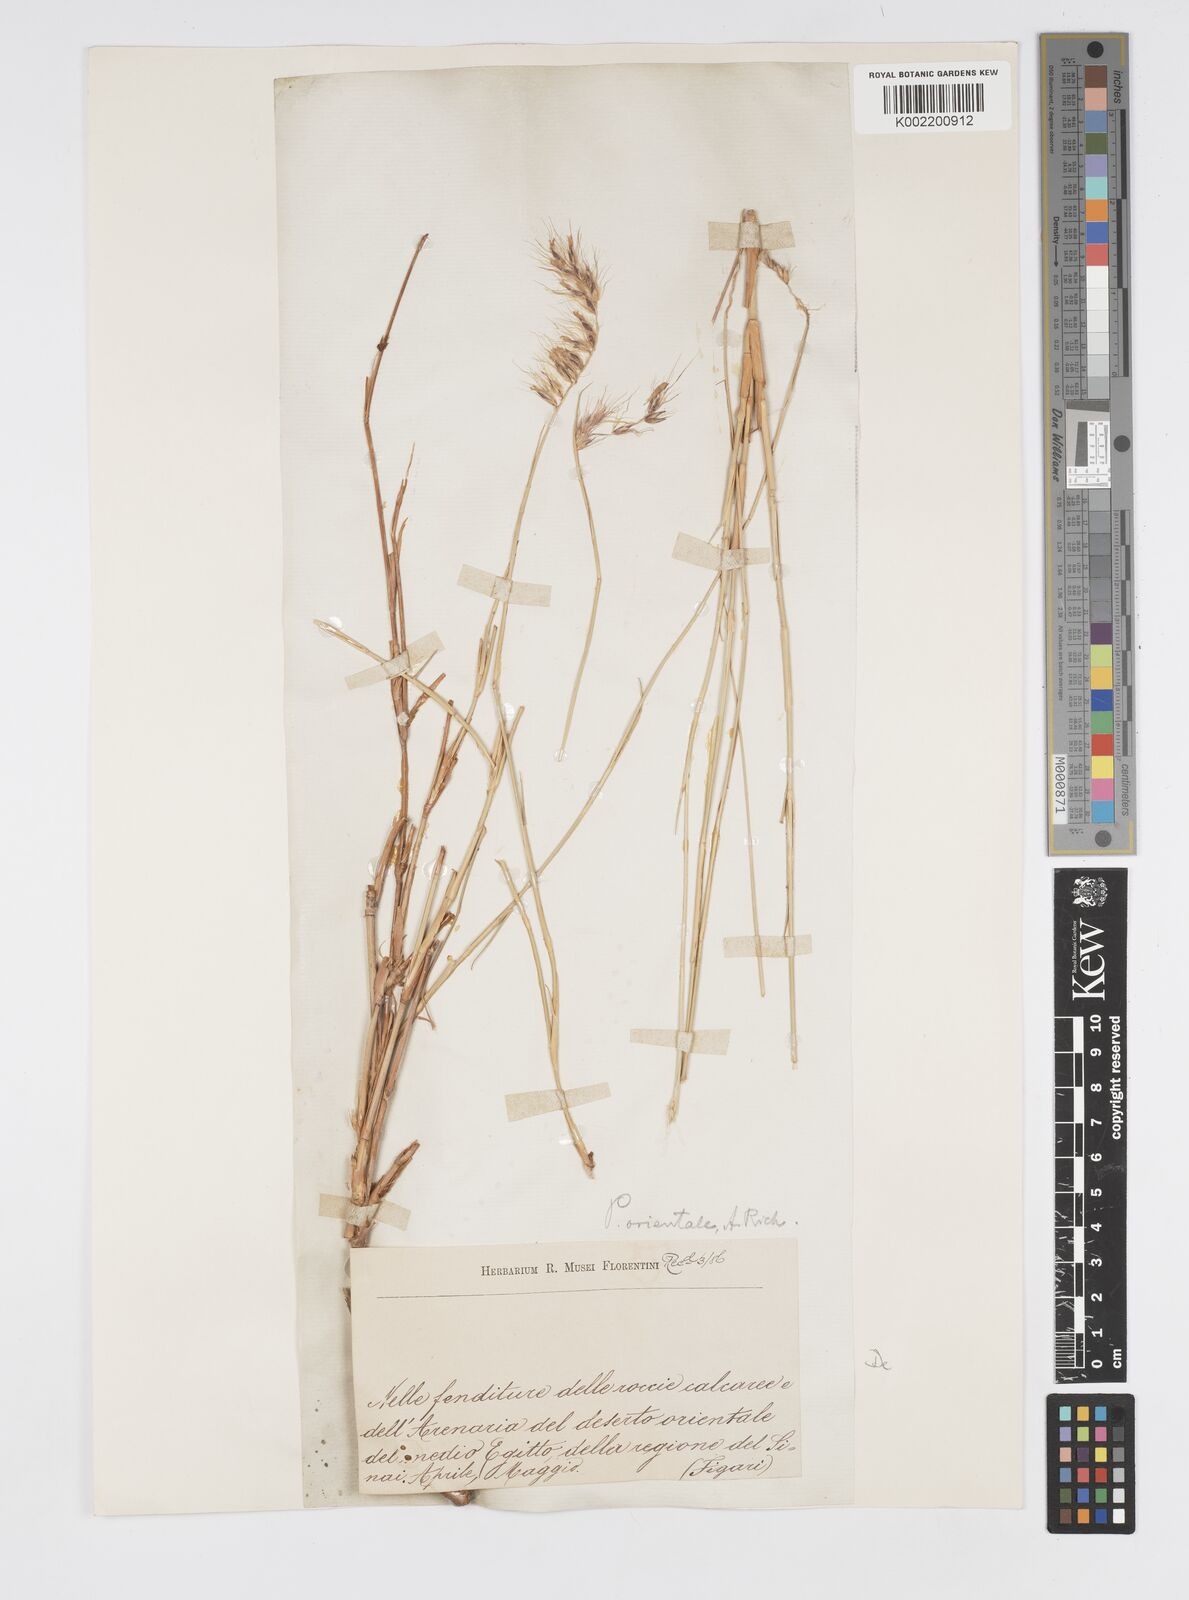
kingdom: Plantae
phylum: Tracheophyta
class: Liliopsida
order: Poales
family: Poaceae
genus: Cenchrus
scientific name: Cenchrus orientalis
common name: Oriental fountain grass
